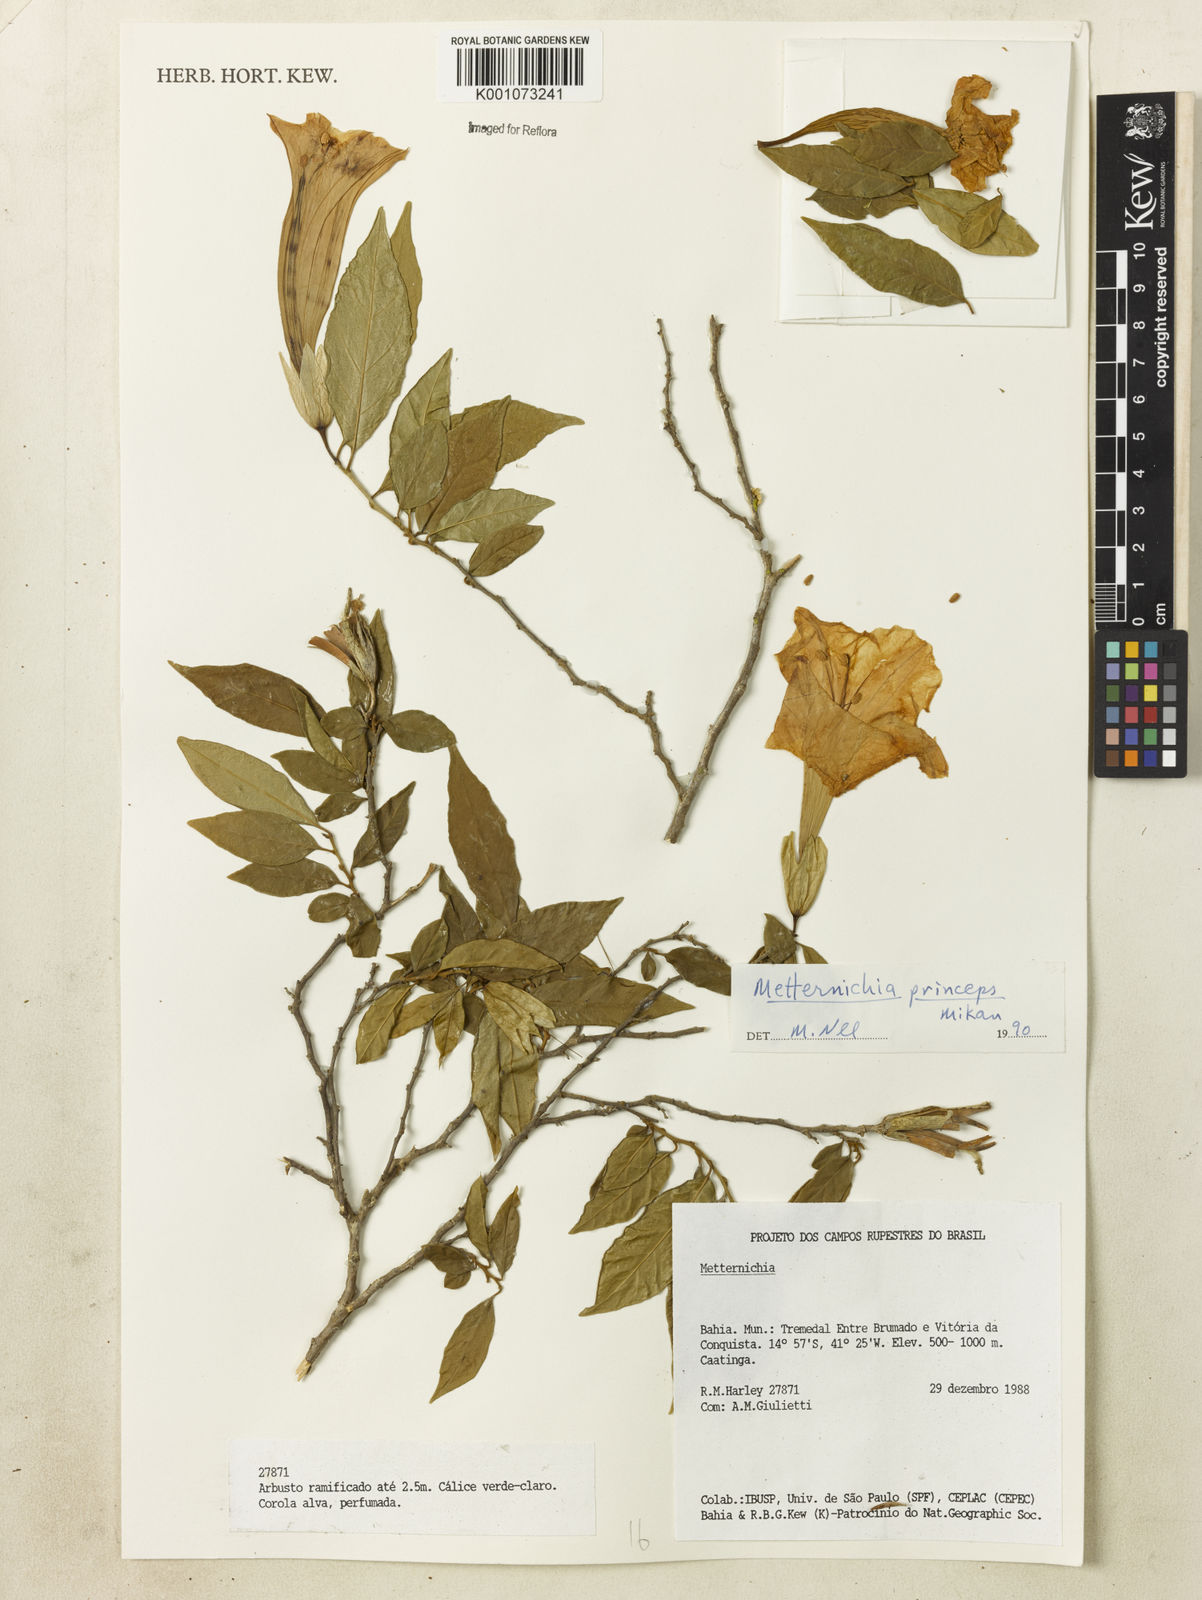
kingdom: Plantae
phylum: Tracheophyta
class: Magnoliopsida
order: Solanales
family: Solanaceae
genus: Metternichia
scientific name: Metternichia
